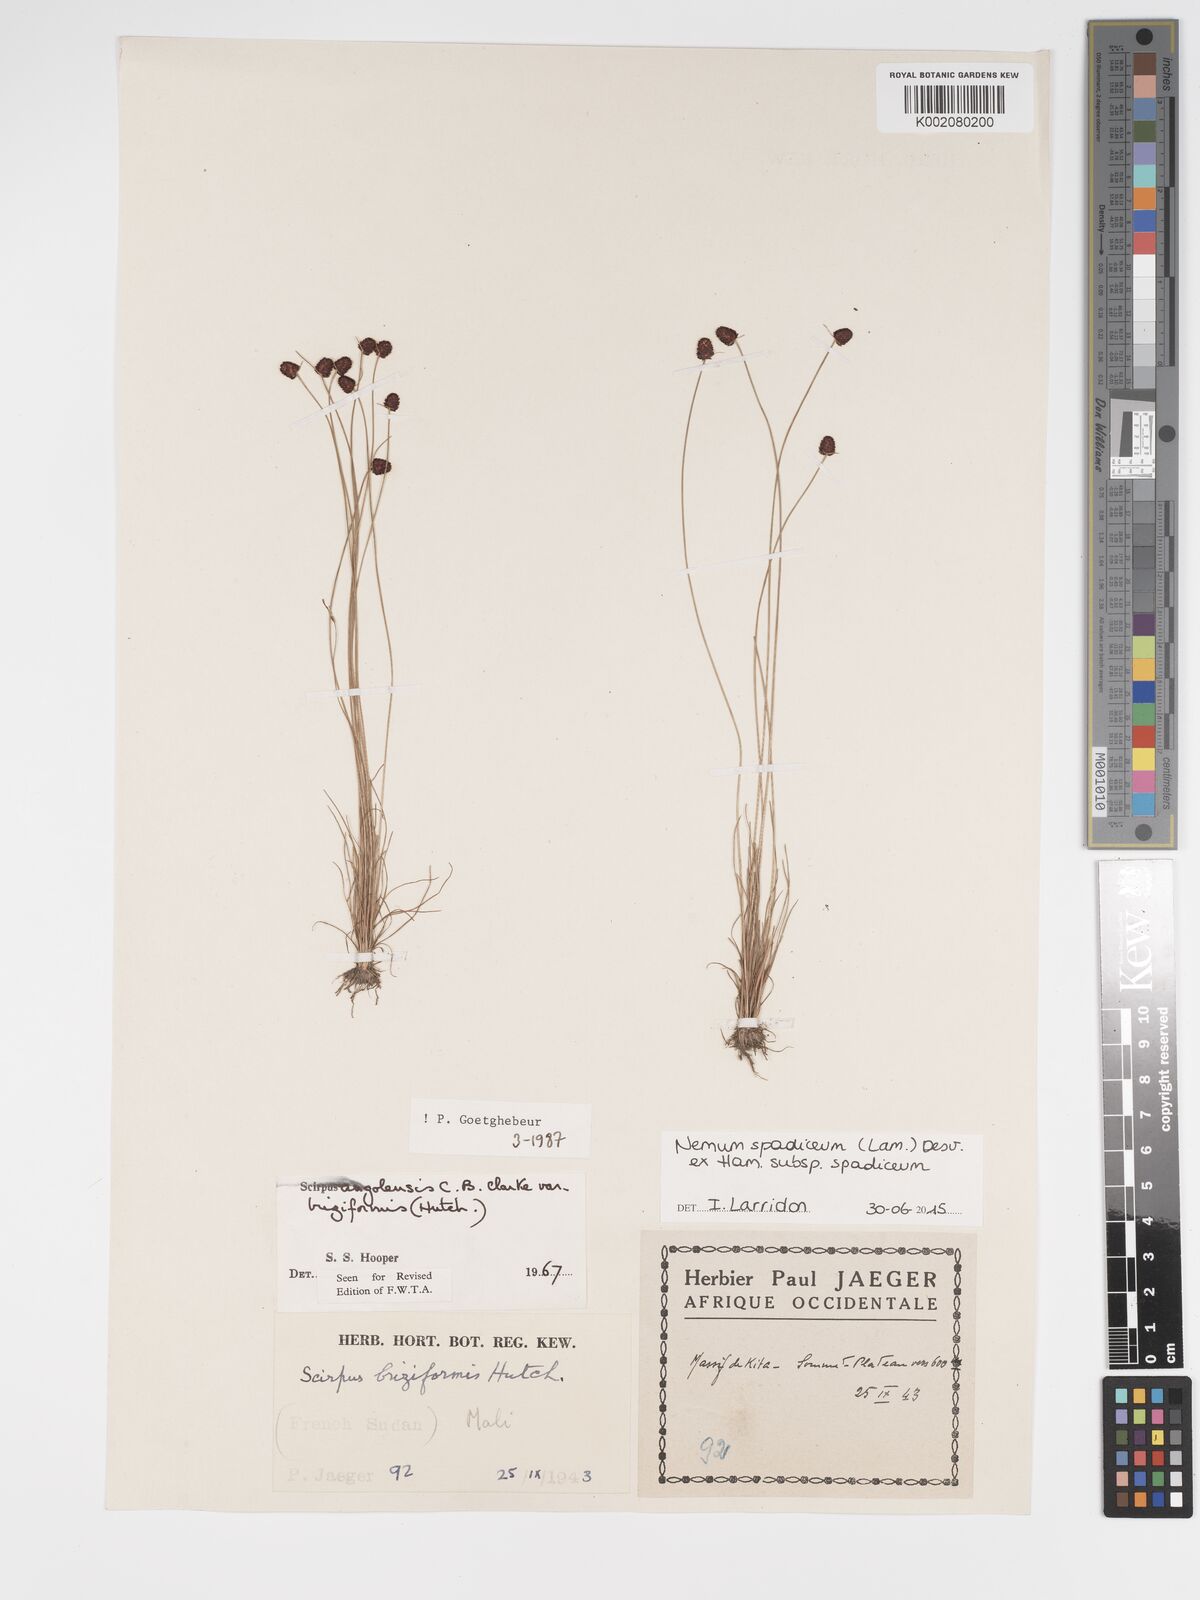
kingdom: Plantae
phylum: Tracheophyta
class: Liliopsida
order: Poales
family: Cyperaceae
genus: Bulbostylis
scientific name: Bulbostylis briziformis
